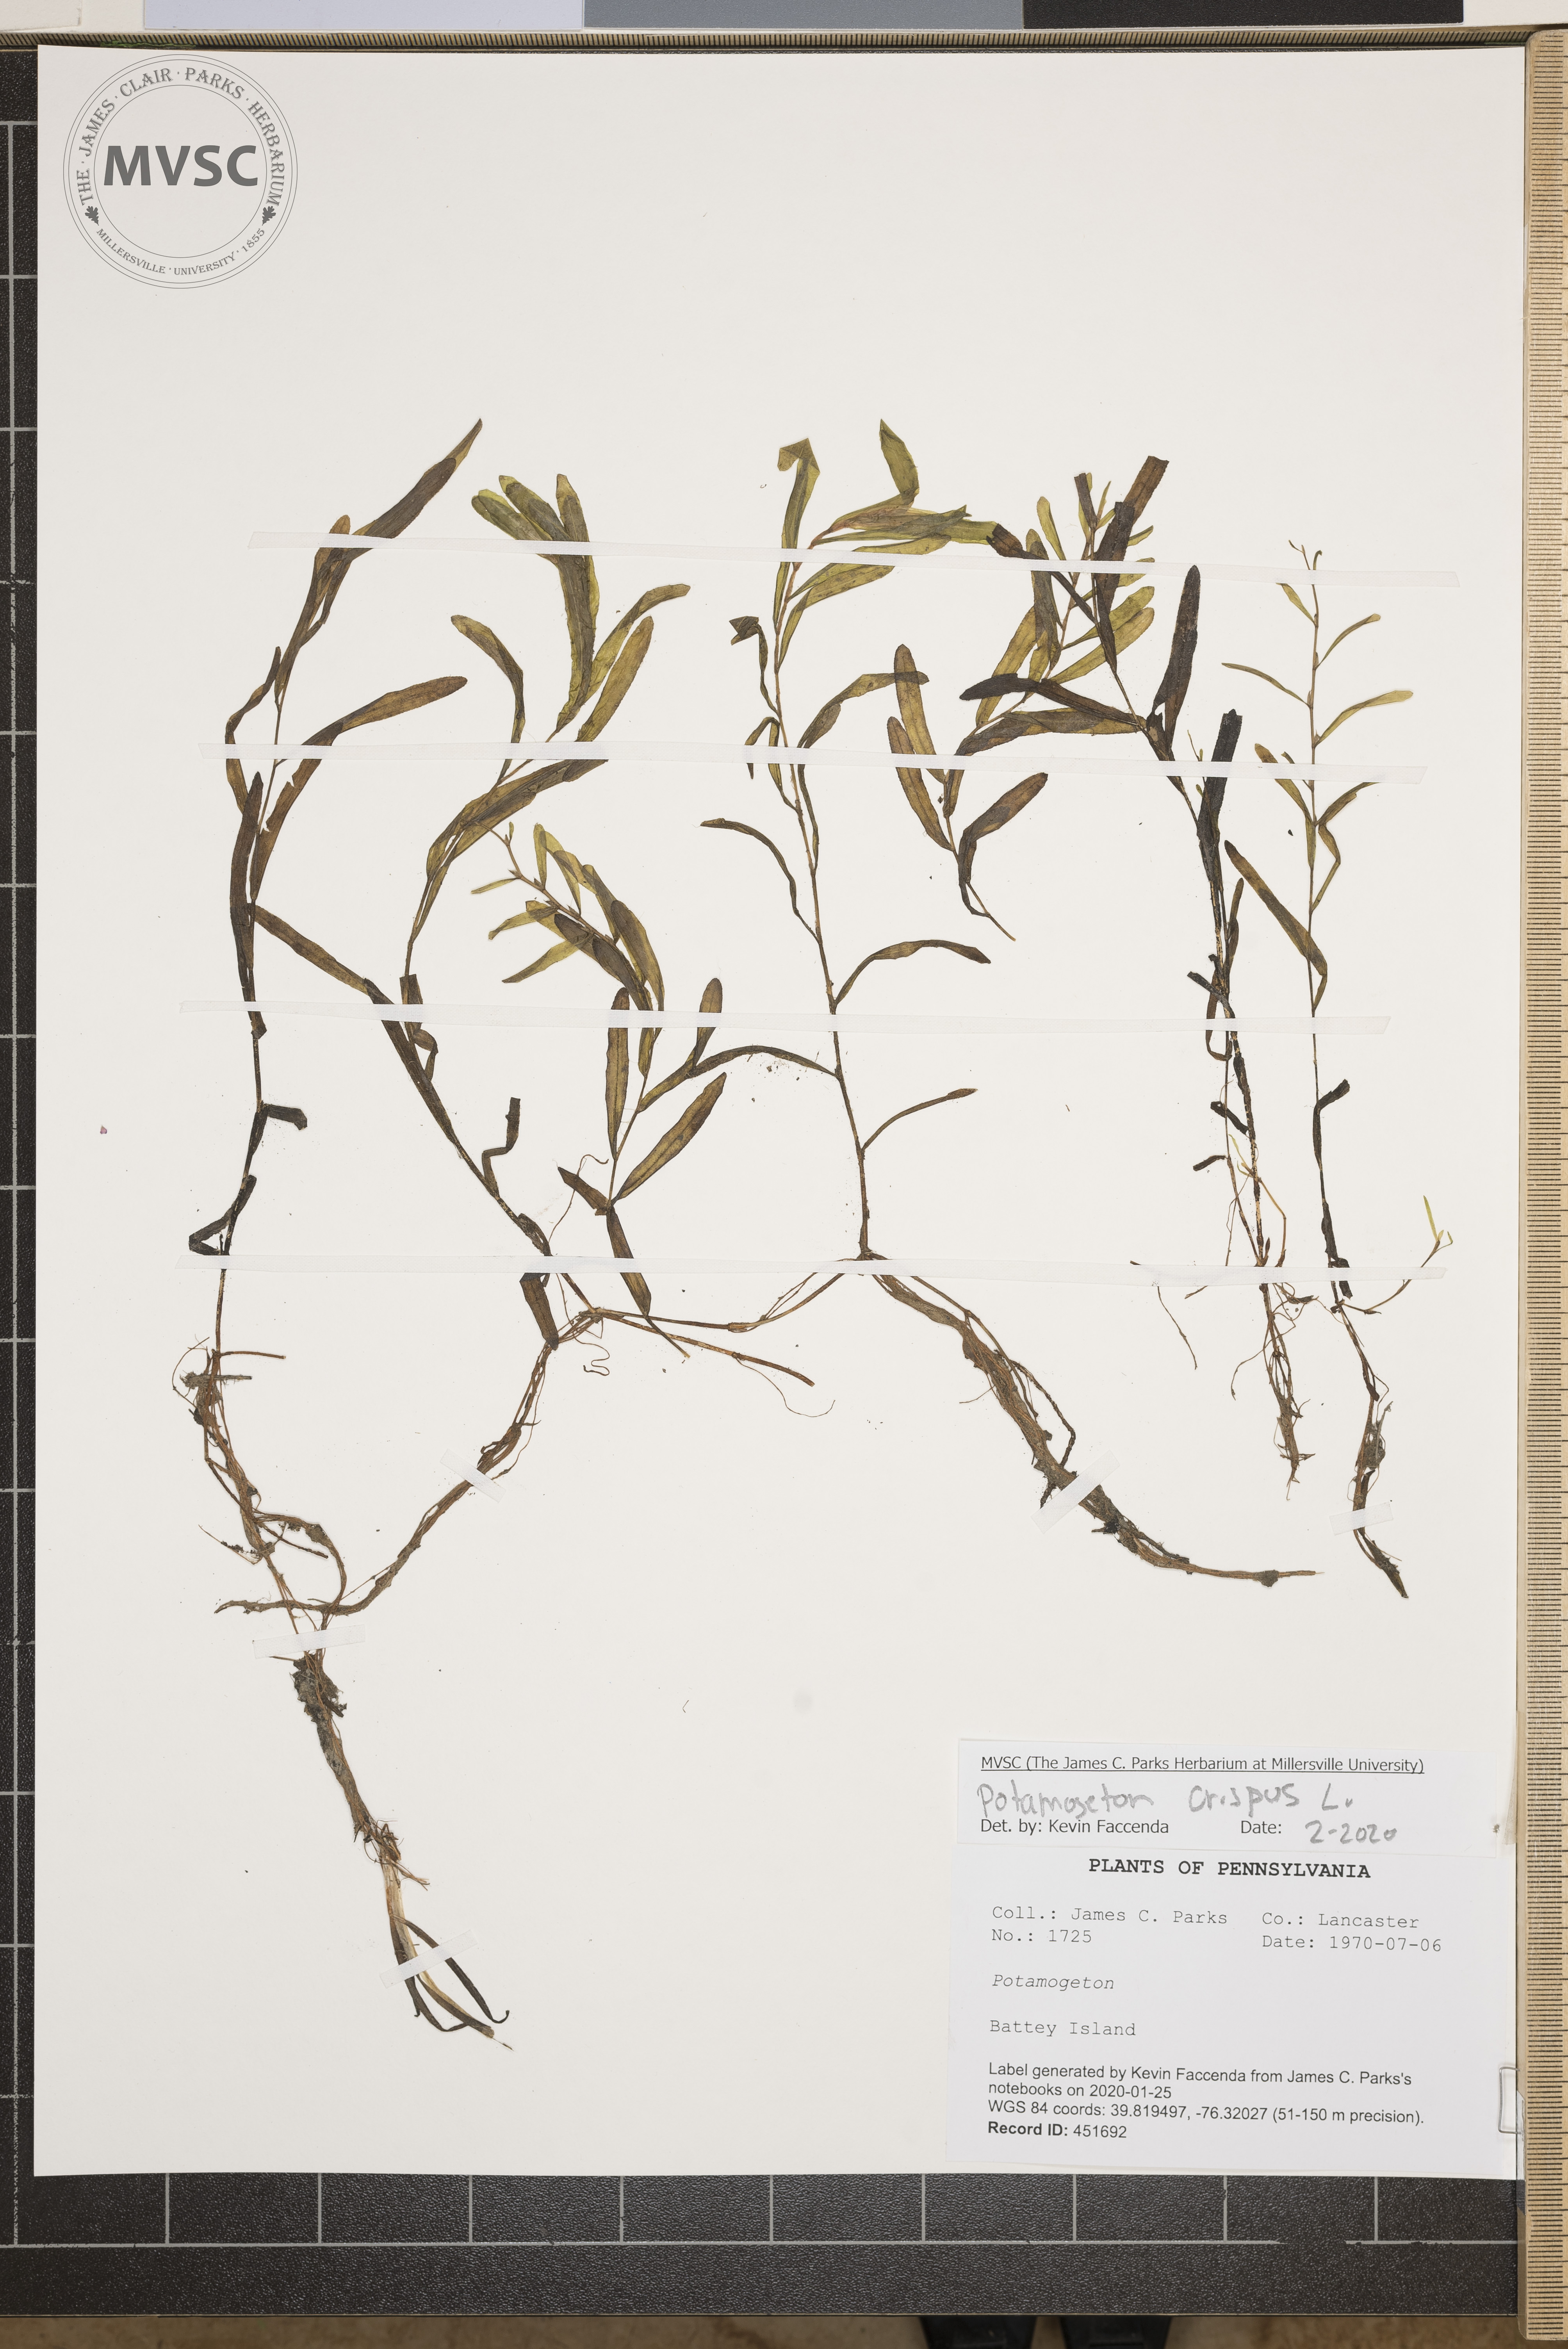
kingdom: Plantae
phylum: Tracheophyta
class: Liliopsida
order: Alismatales
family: Potamogetonaceae
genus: Potamogeton
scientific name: Potamogeton crispus
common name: Curled pondweed
